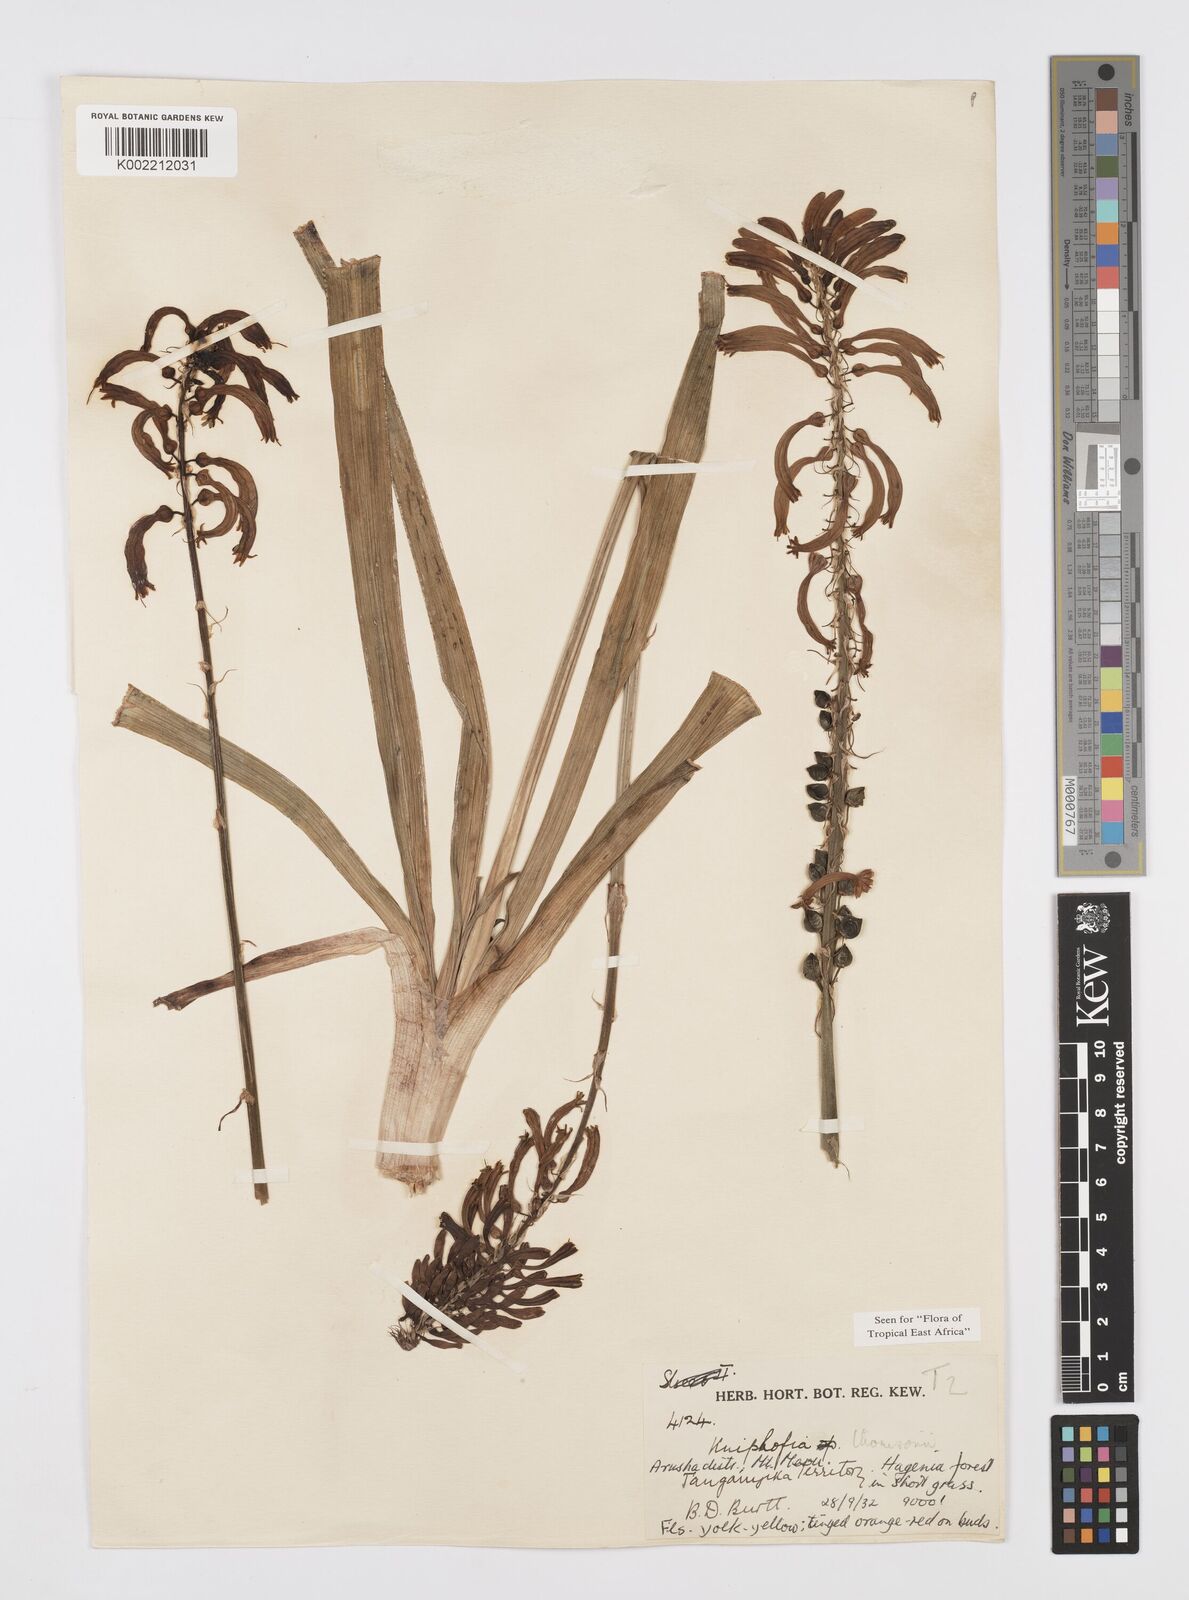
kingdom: Plantae
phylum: Tracheophyta
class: Liliopsida
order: Asparagales
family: Asphodelaceae
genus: Kniphofia
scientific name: Kniphofia thomsonii
